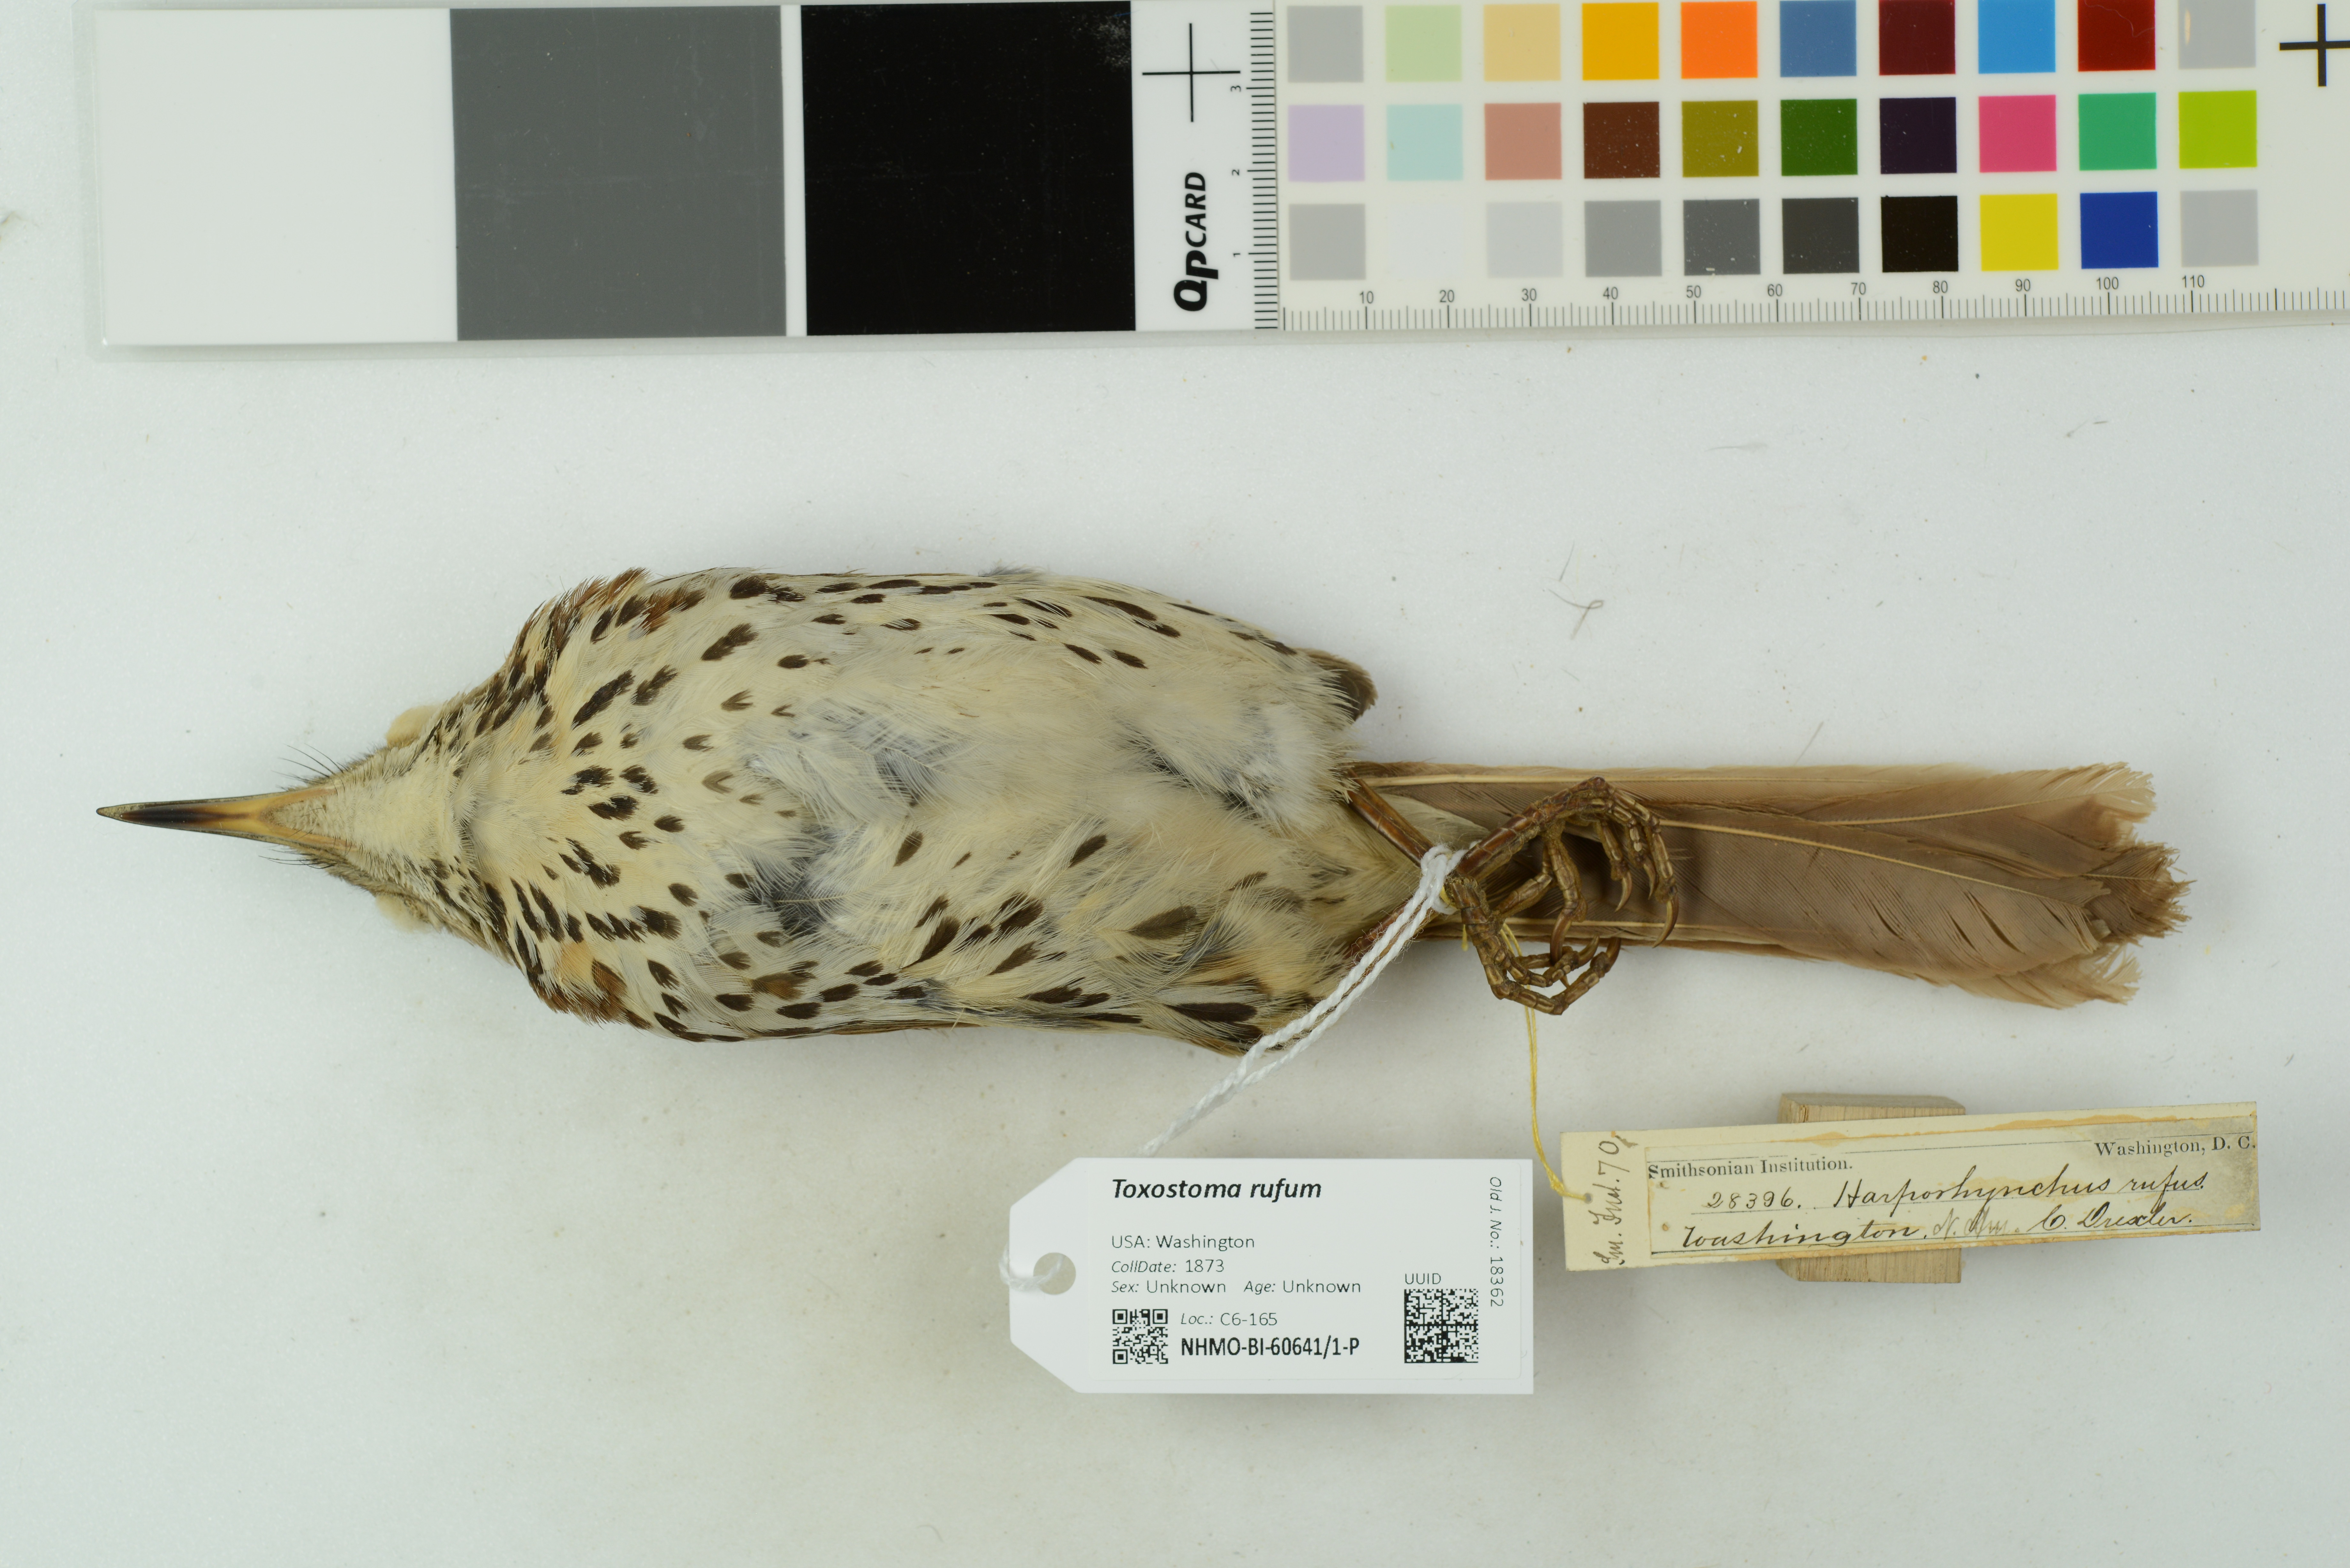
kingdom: Animalia
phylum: Chordata
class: Aves
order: Passeriformes
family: Mimidae
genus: Toxostoma
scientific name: Toxostoma rufum
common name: Brown thrasher
